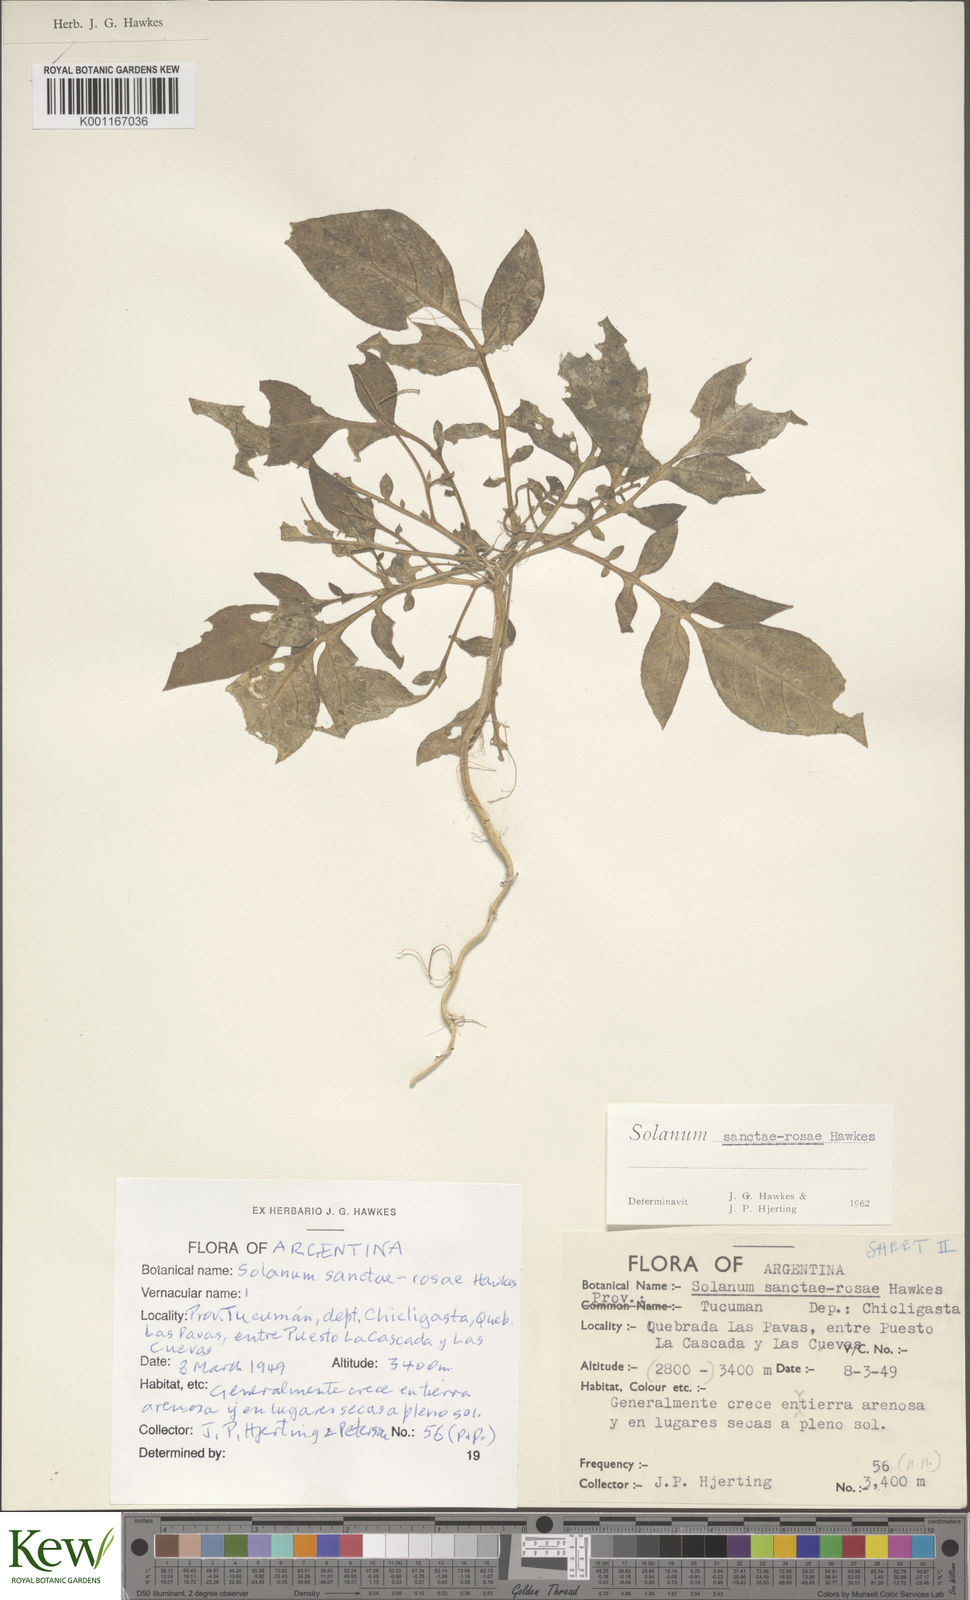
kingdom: Plantae
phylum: Tracheophyta
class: Magnoliopsida
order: Solanales
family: Solanaceae
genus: Solanum
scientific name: Solanum boliviense
